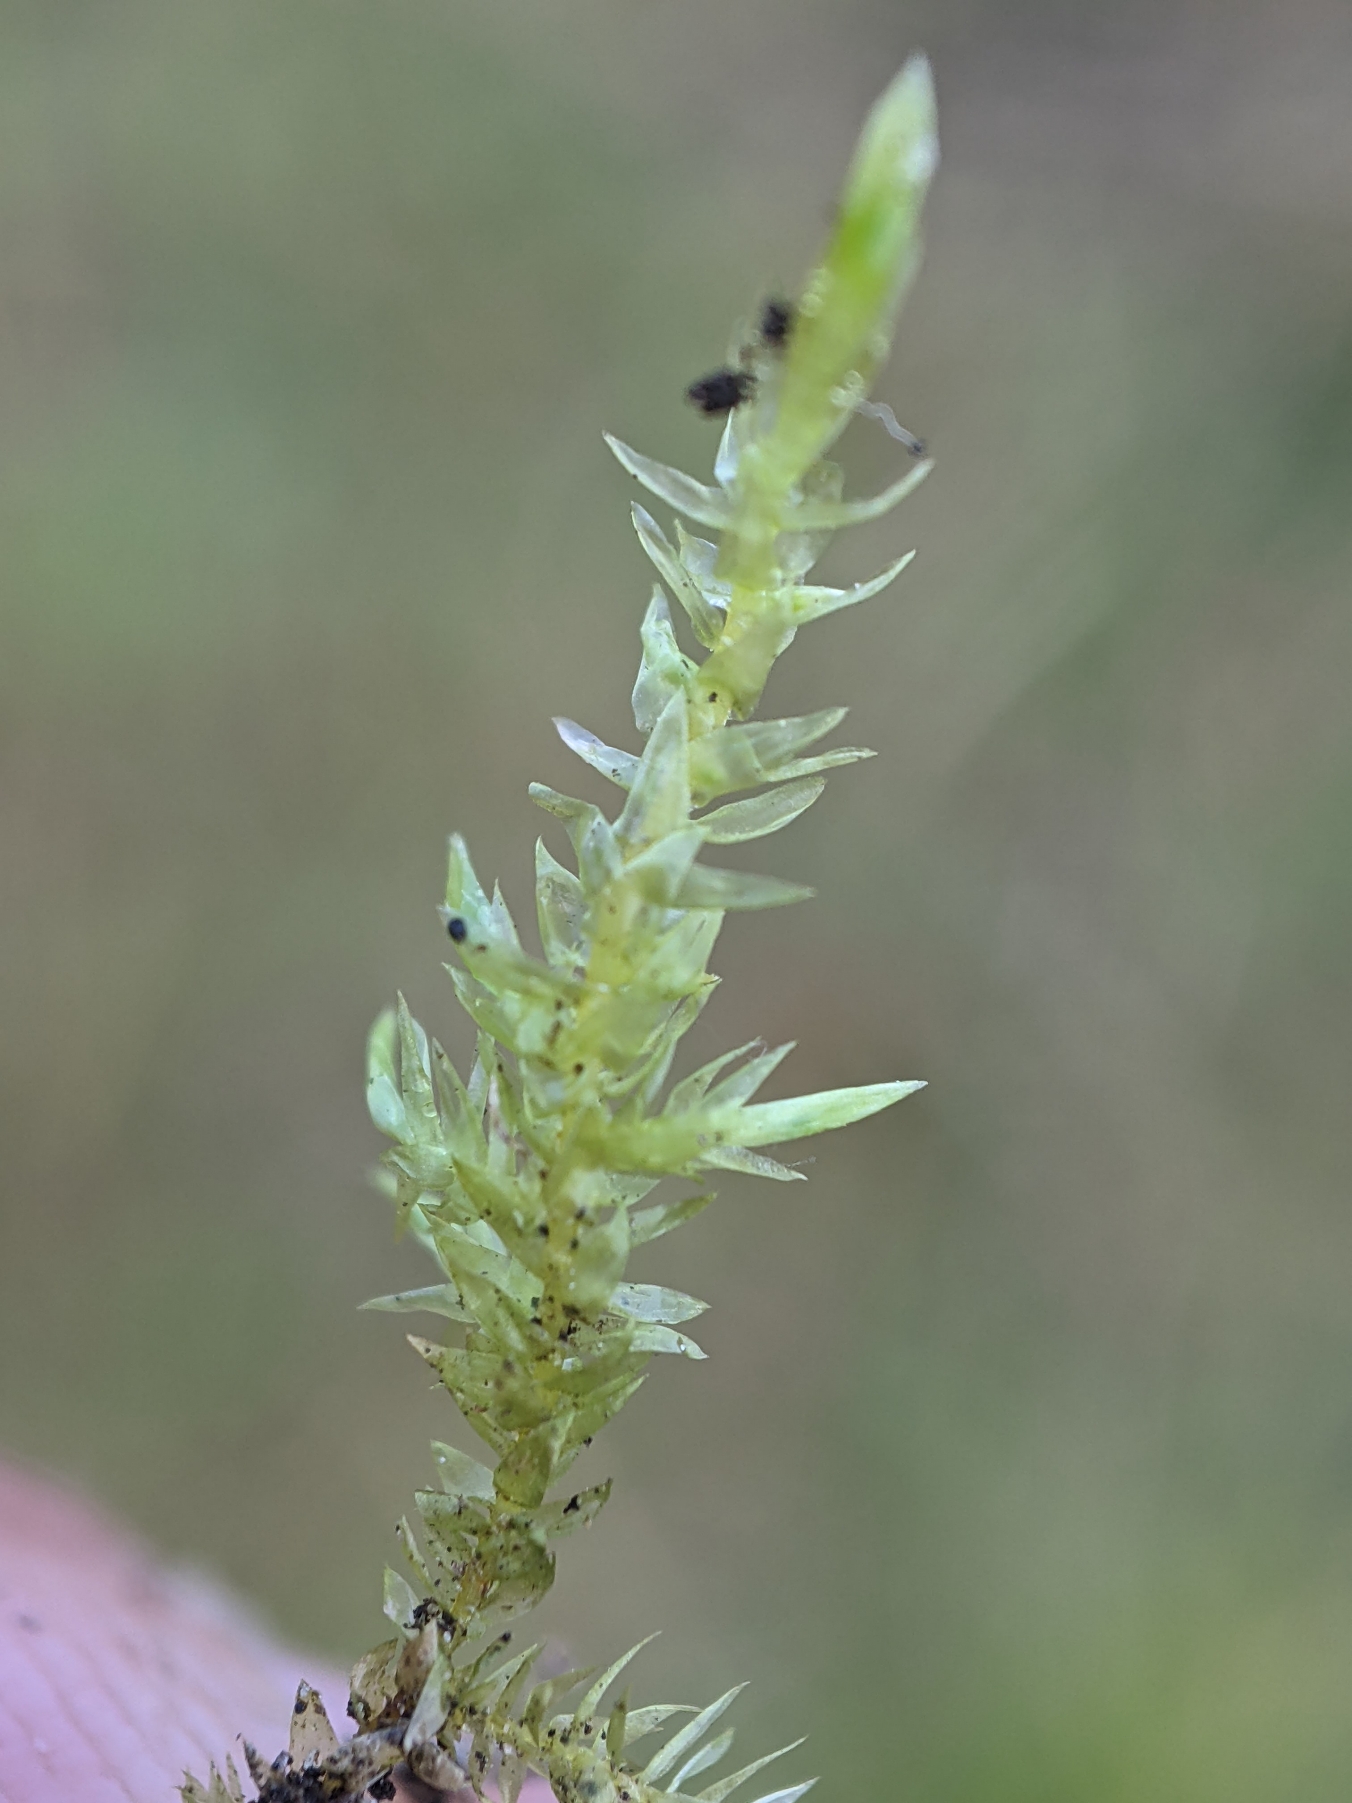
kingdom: Plantae
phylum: Bryophyta
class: Bryopsida
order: Hypnales
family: Calliergonaceae
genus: Calliergon
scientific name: Calliergon cordifolium
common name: Almindelig skebladsmos
